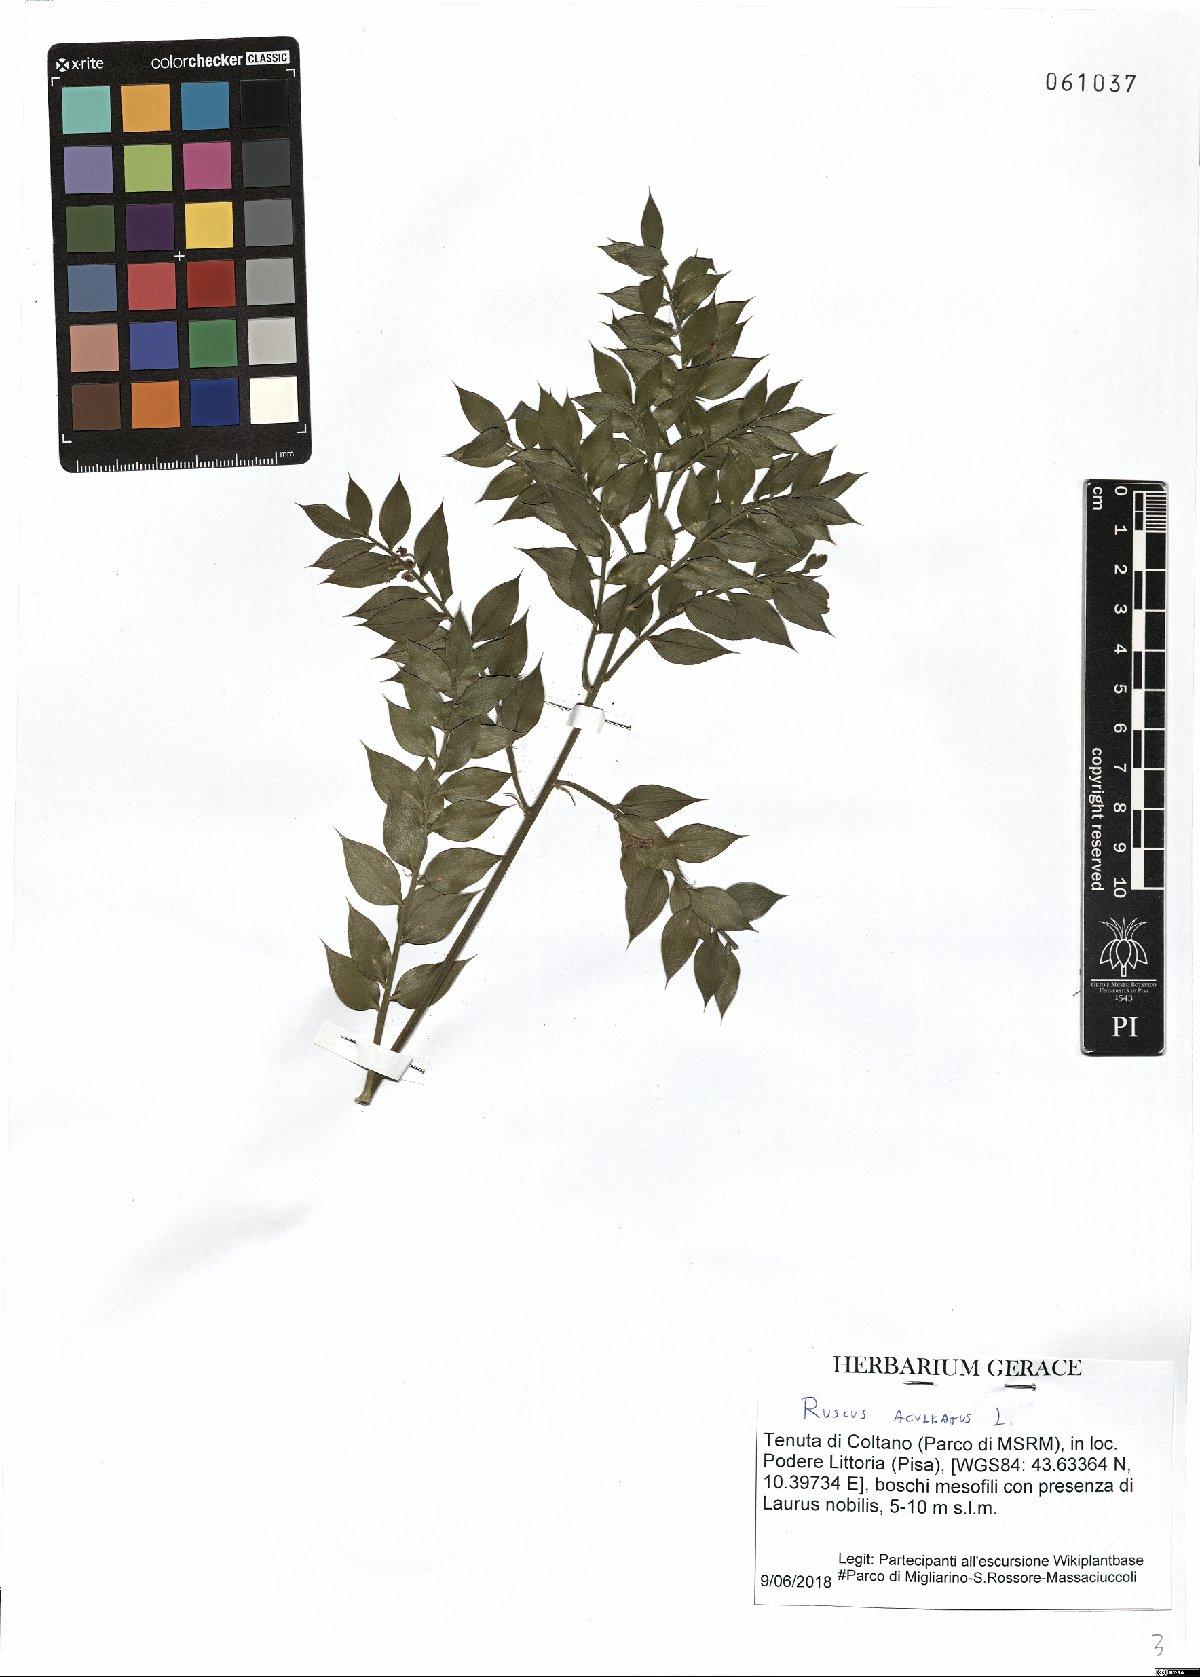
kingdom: Plantae
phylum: Tracheophyta
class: Liliopsida
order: Asparagales
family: Asparagaceae
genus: Ruscus
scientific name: Ruscus aculeatus
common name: Butcher's-broom
